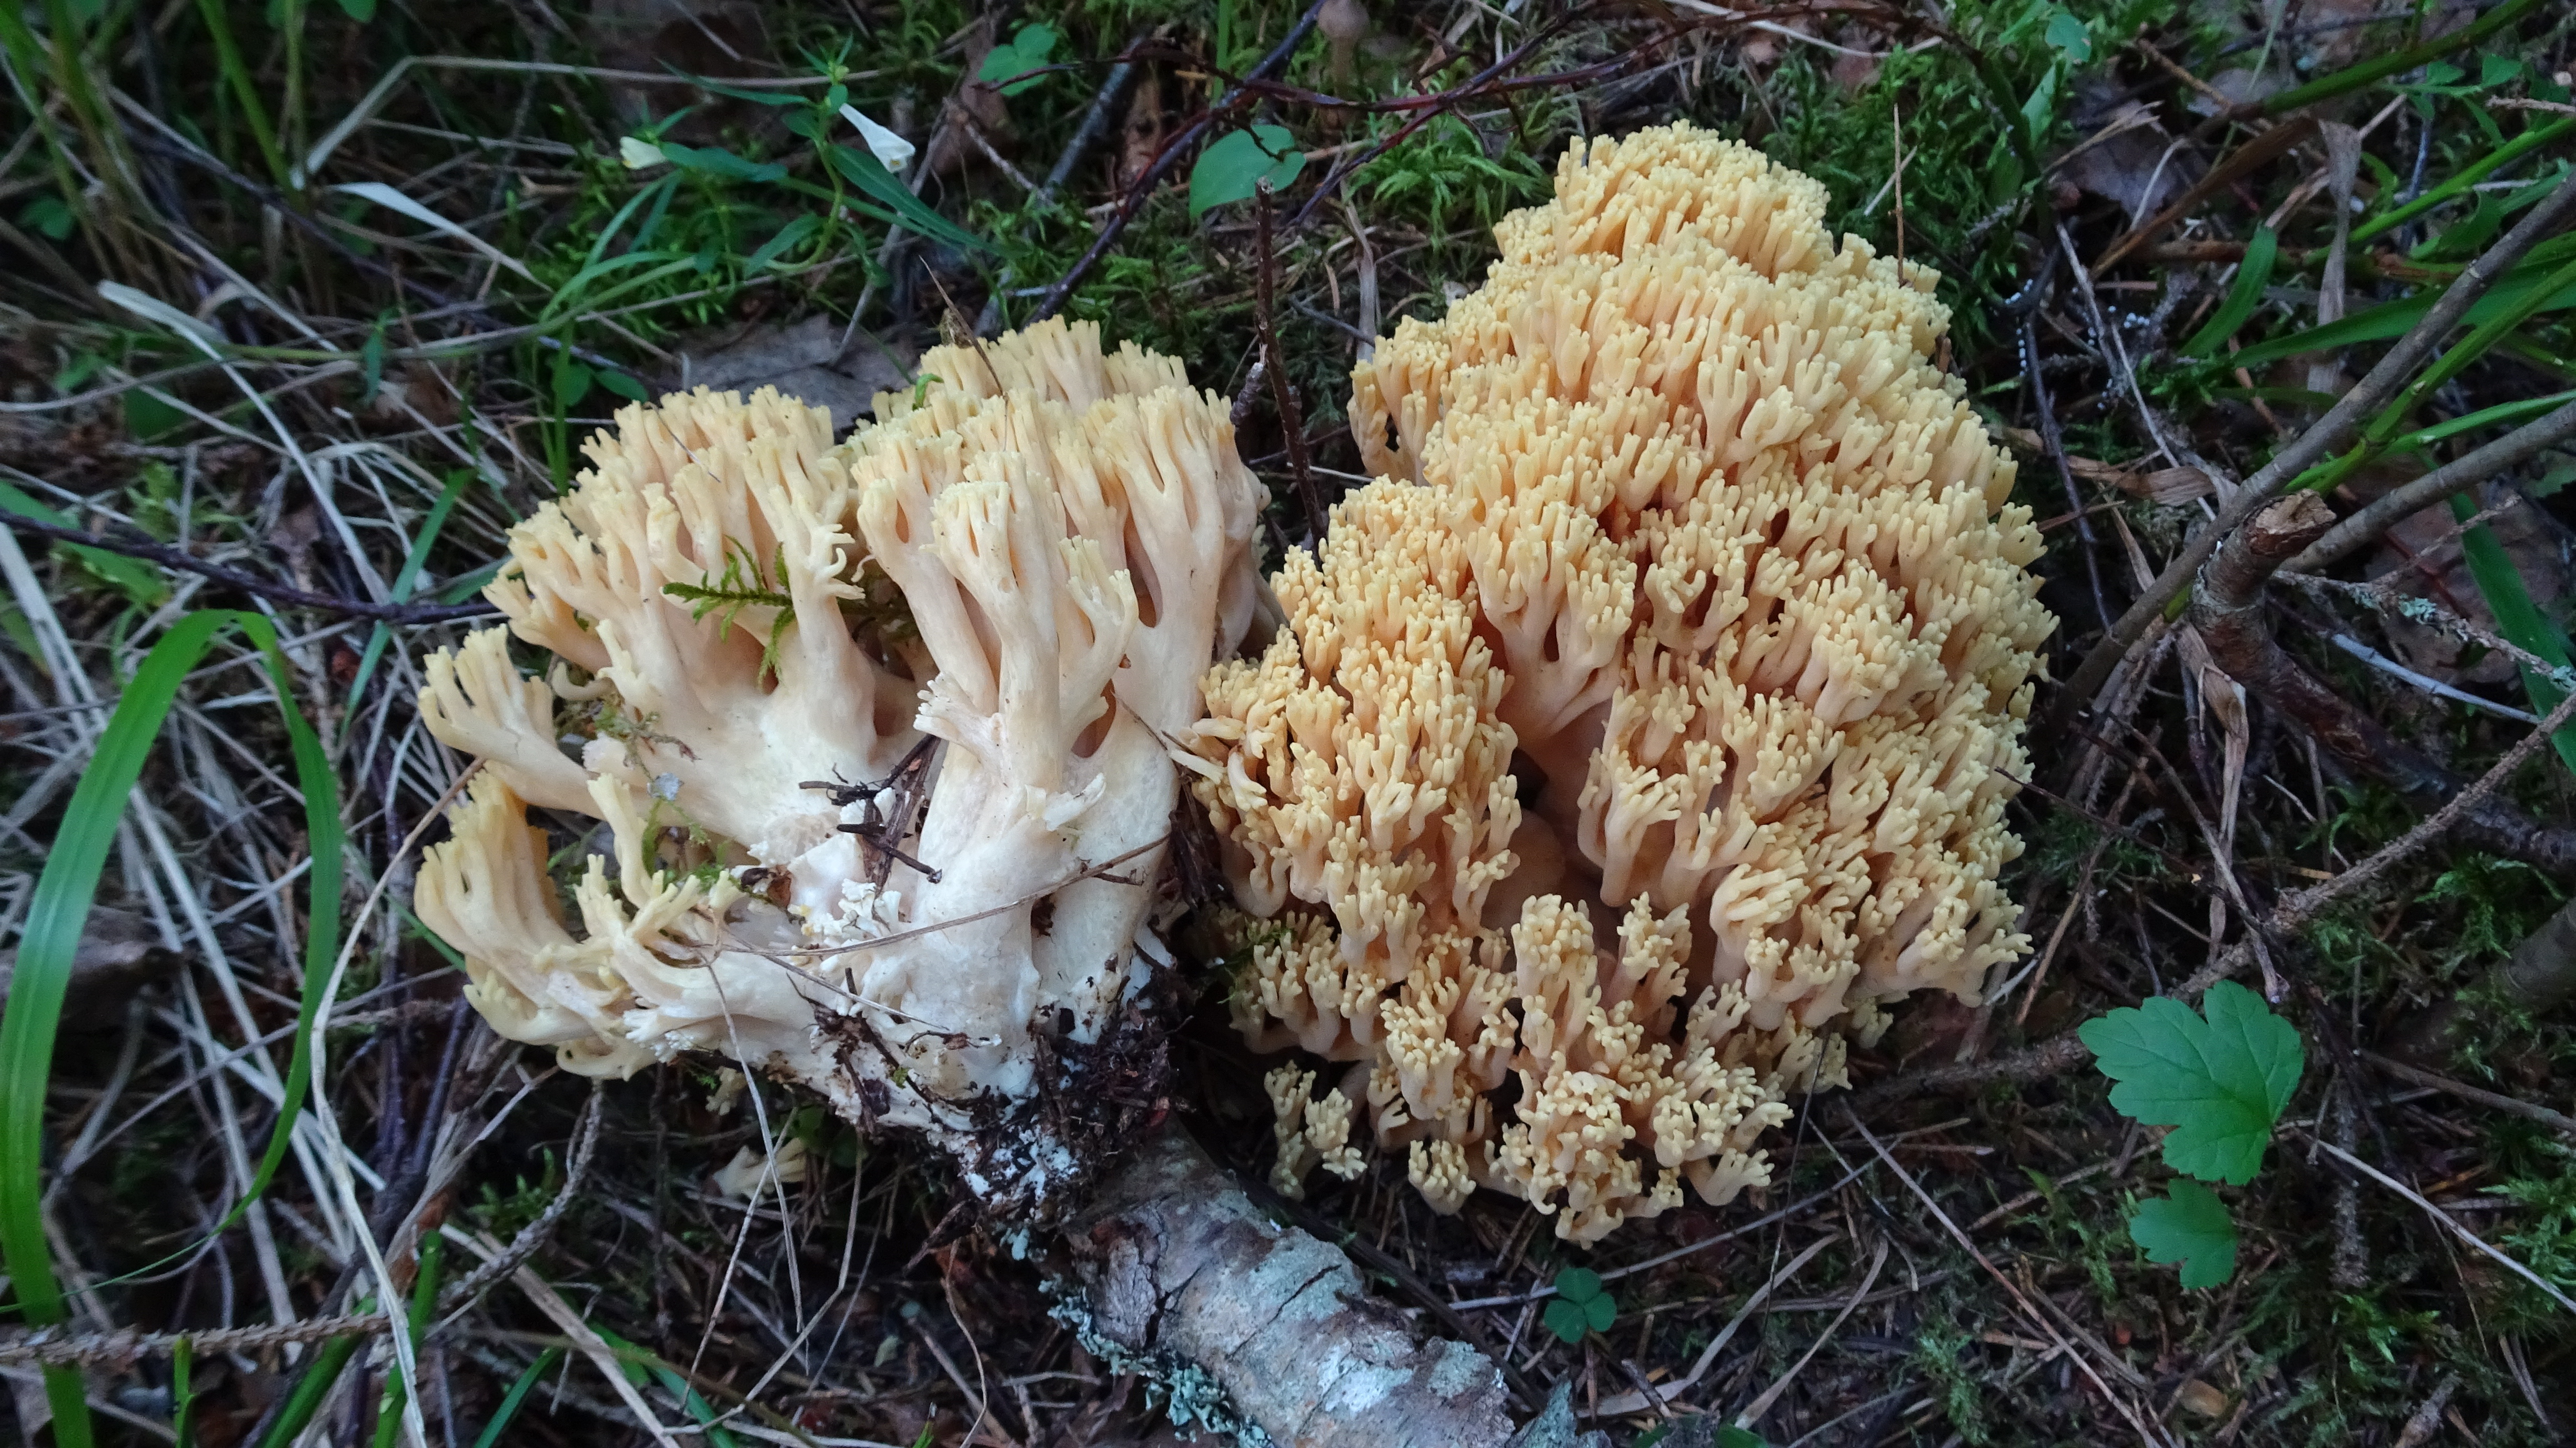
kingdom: Fungi
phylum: Basidiomycota
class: Agaricomycetes
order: Gomphales
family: Gomphaceae
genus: Ramaria
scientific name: Ramaria
